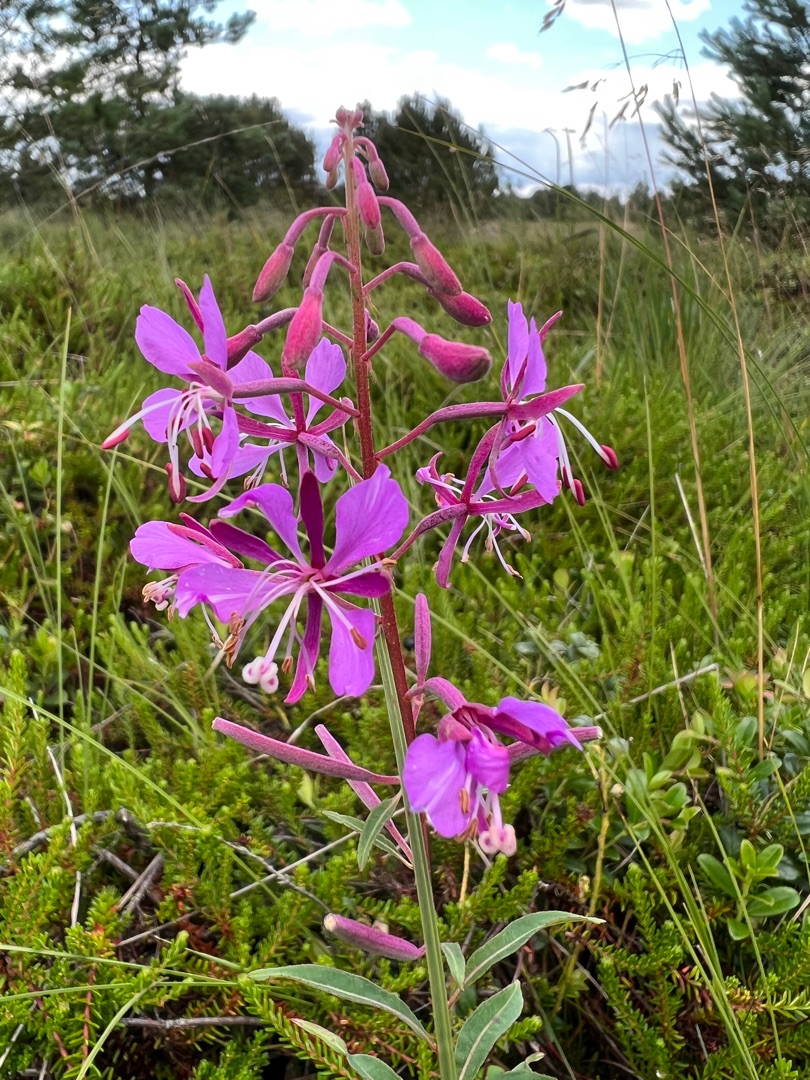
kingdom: Plantae
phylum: Tracheophyta
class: Magnoliopsida
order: Myrtales
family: Onagraceae
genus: Chamaenerion
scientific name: Chamaenerion angustifolium
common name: Gederams
